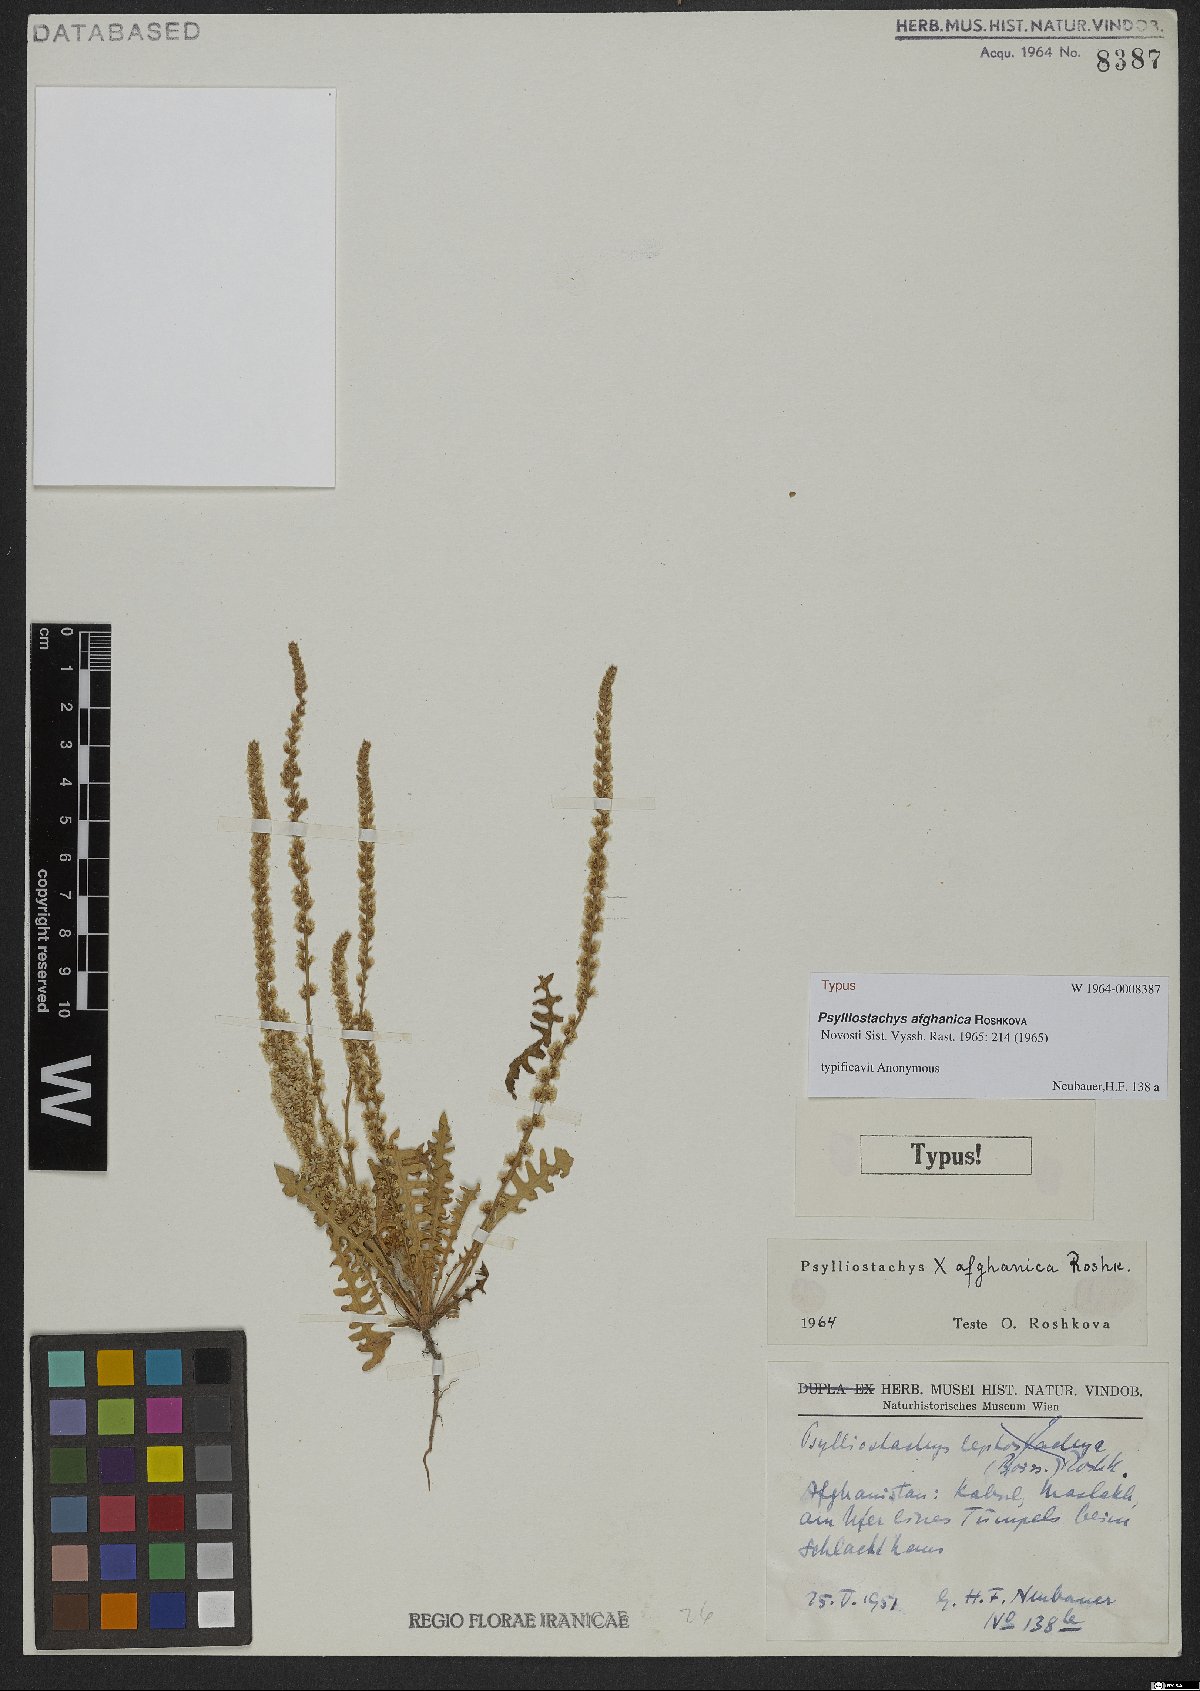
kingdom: Plantae
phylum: Tracheophyta
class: Magnoliopsida
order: Caryophyllales
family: Plumbaginaceae
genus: Psylliostachys
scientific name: Psylliostachys afghanicus
